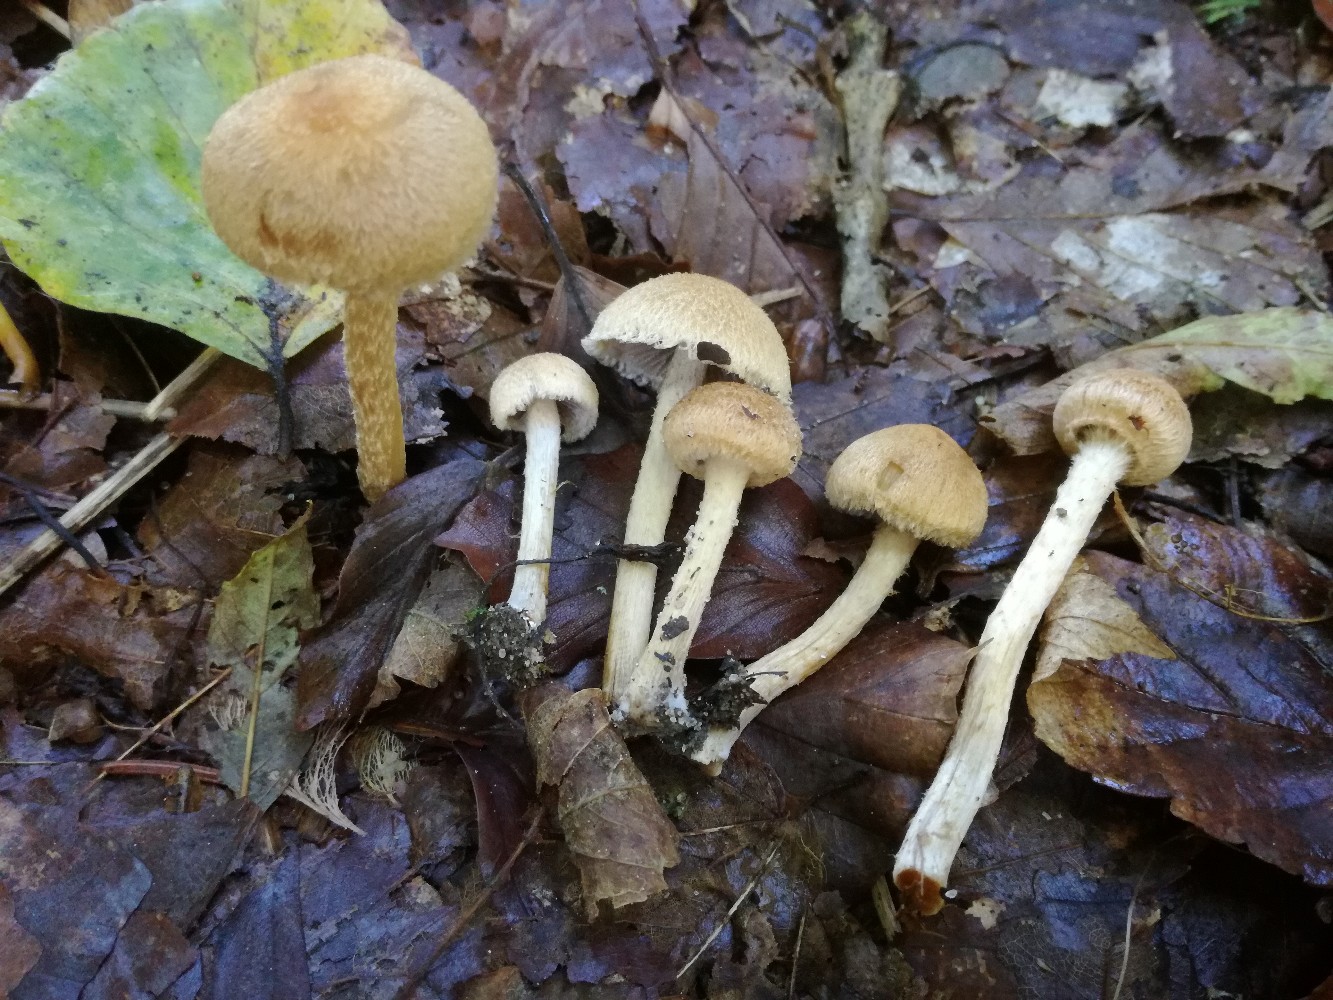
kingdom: Fungi
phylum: Basidiomycota
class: Agaricomycetes
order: Agaricales
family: Psathyrellaceae
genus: Lacrymaria
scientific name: Lacrymaria lacrymabunda
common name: grædende mørkhat
